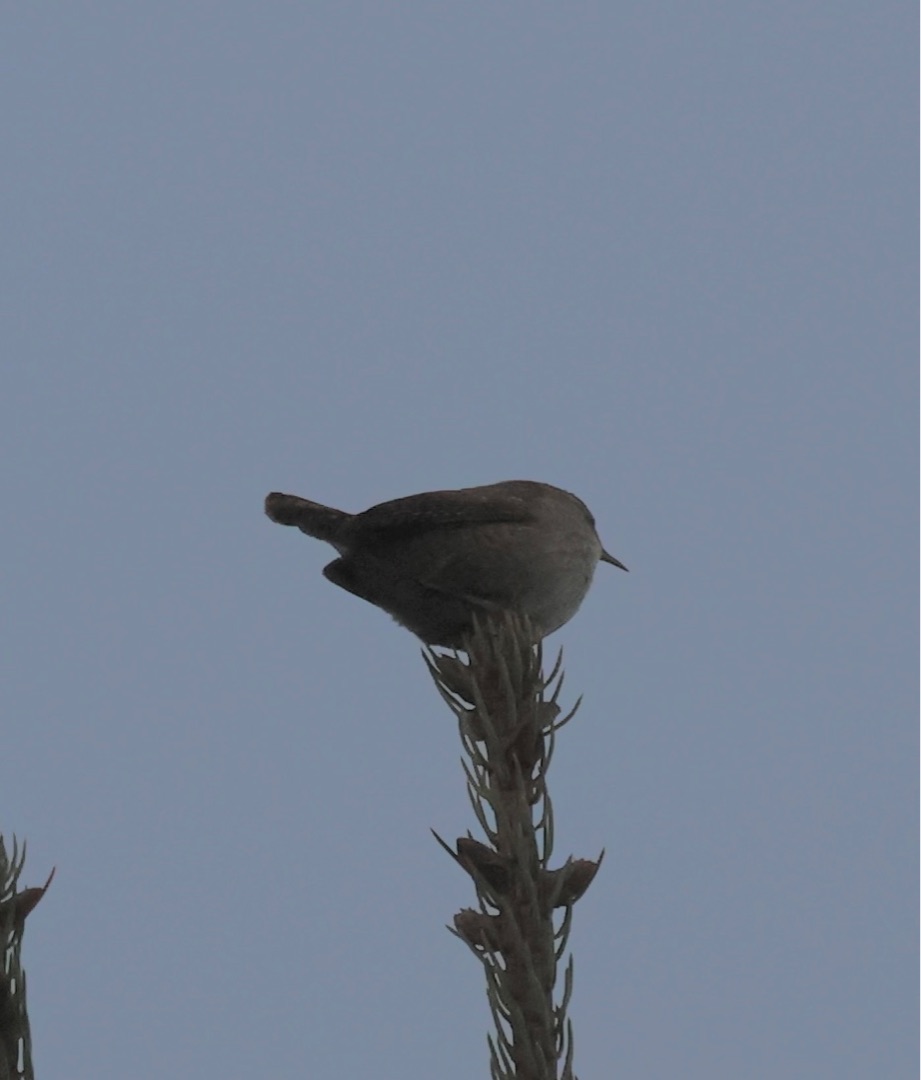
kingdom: Animalia
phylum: Chordata
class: Aves
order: Passeriformes
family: Troglodytidae
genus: Troglodytes
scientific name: Troglodytes troglodytes
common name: Gærdesmutte
